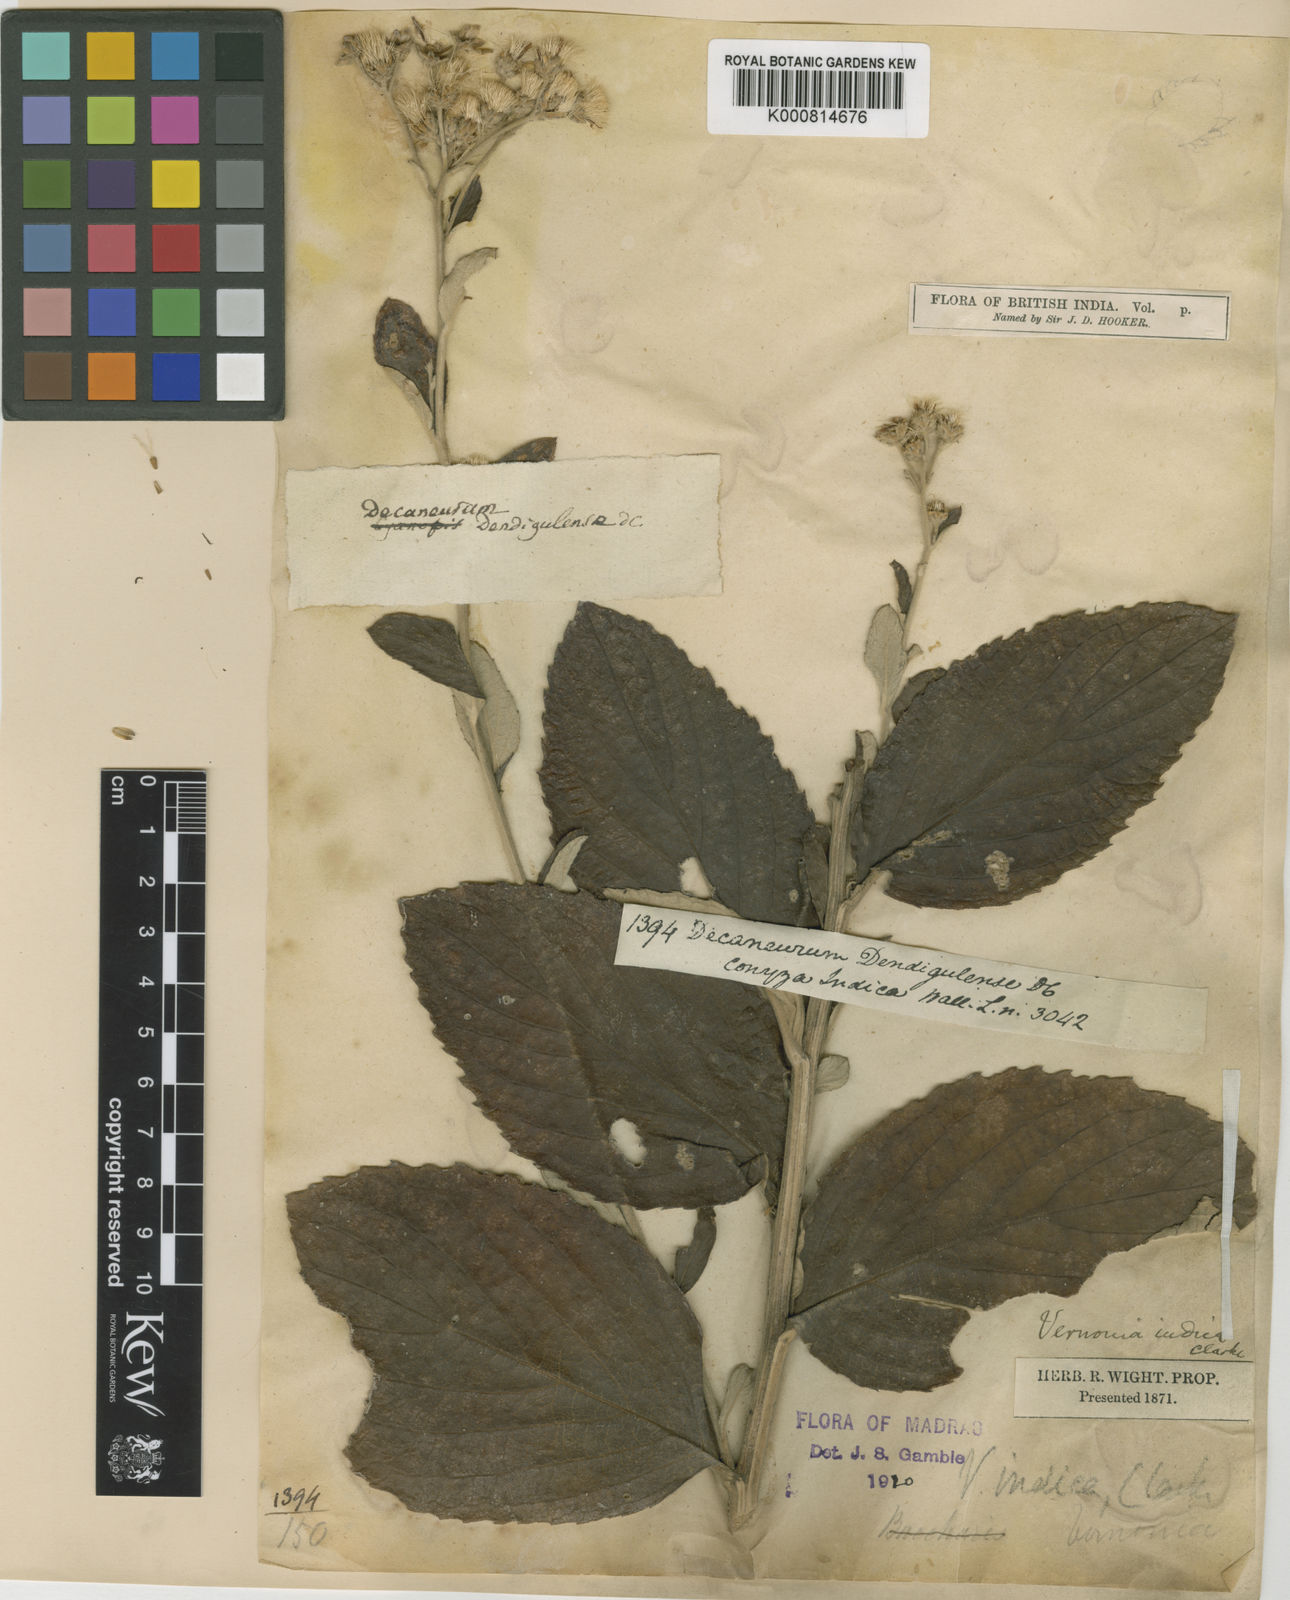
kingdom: Plantae
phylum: Tracheophyta
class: Magnoliopsida
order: Asterales
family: Asteraceae
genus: Acilepis
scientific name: Acilepis dendigulensis
